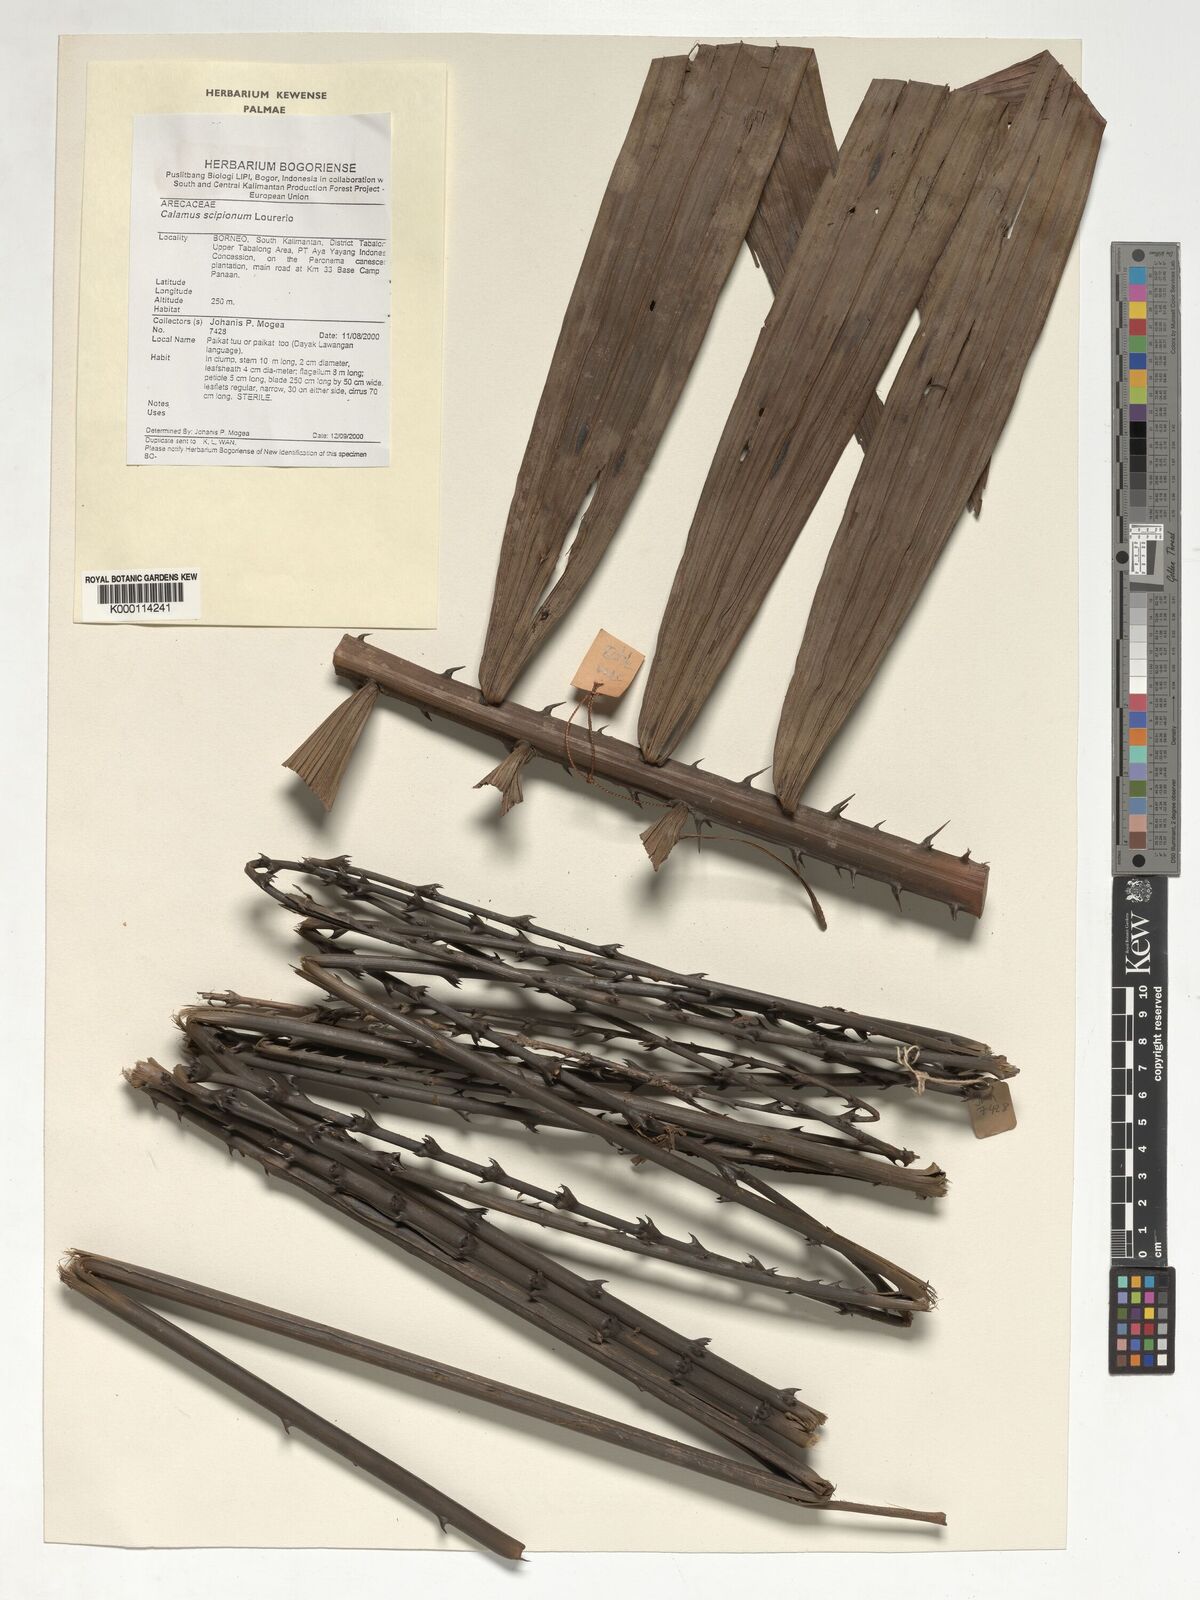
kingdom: Plantae
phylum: Tracheophyta
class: Liliopsida
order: Arecales
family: Arecaceae
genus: Calamus
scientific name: Calamus scipionum
